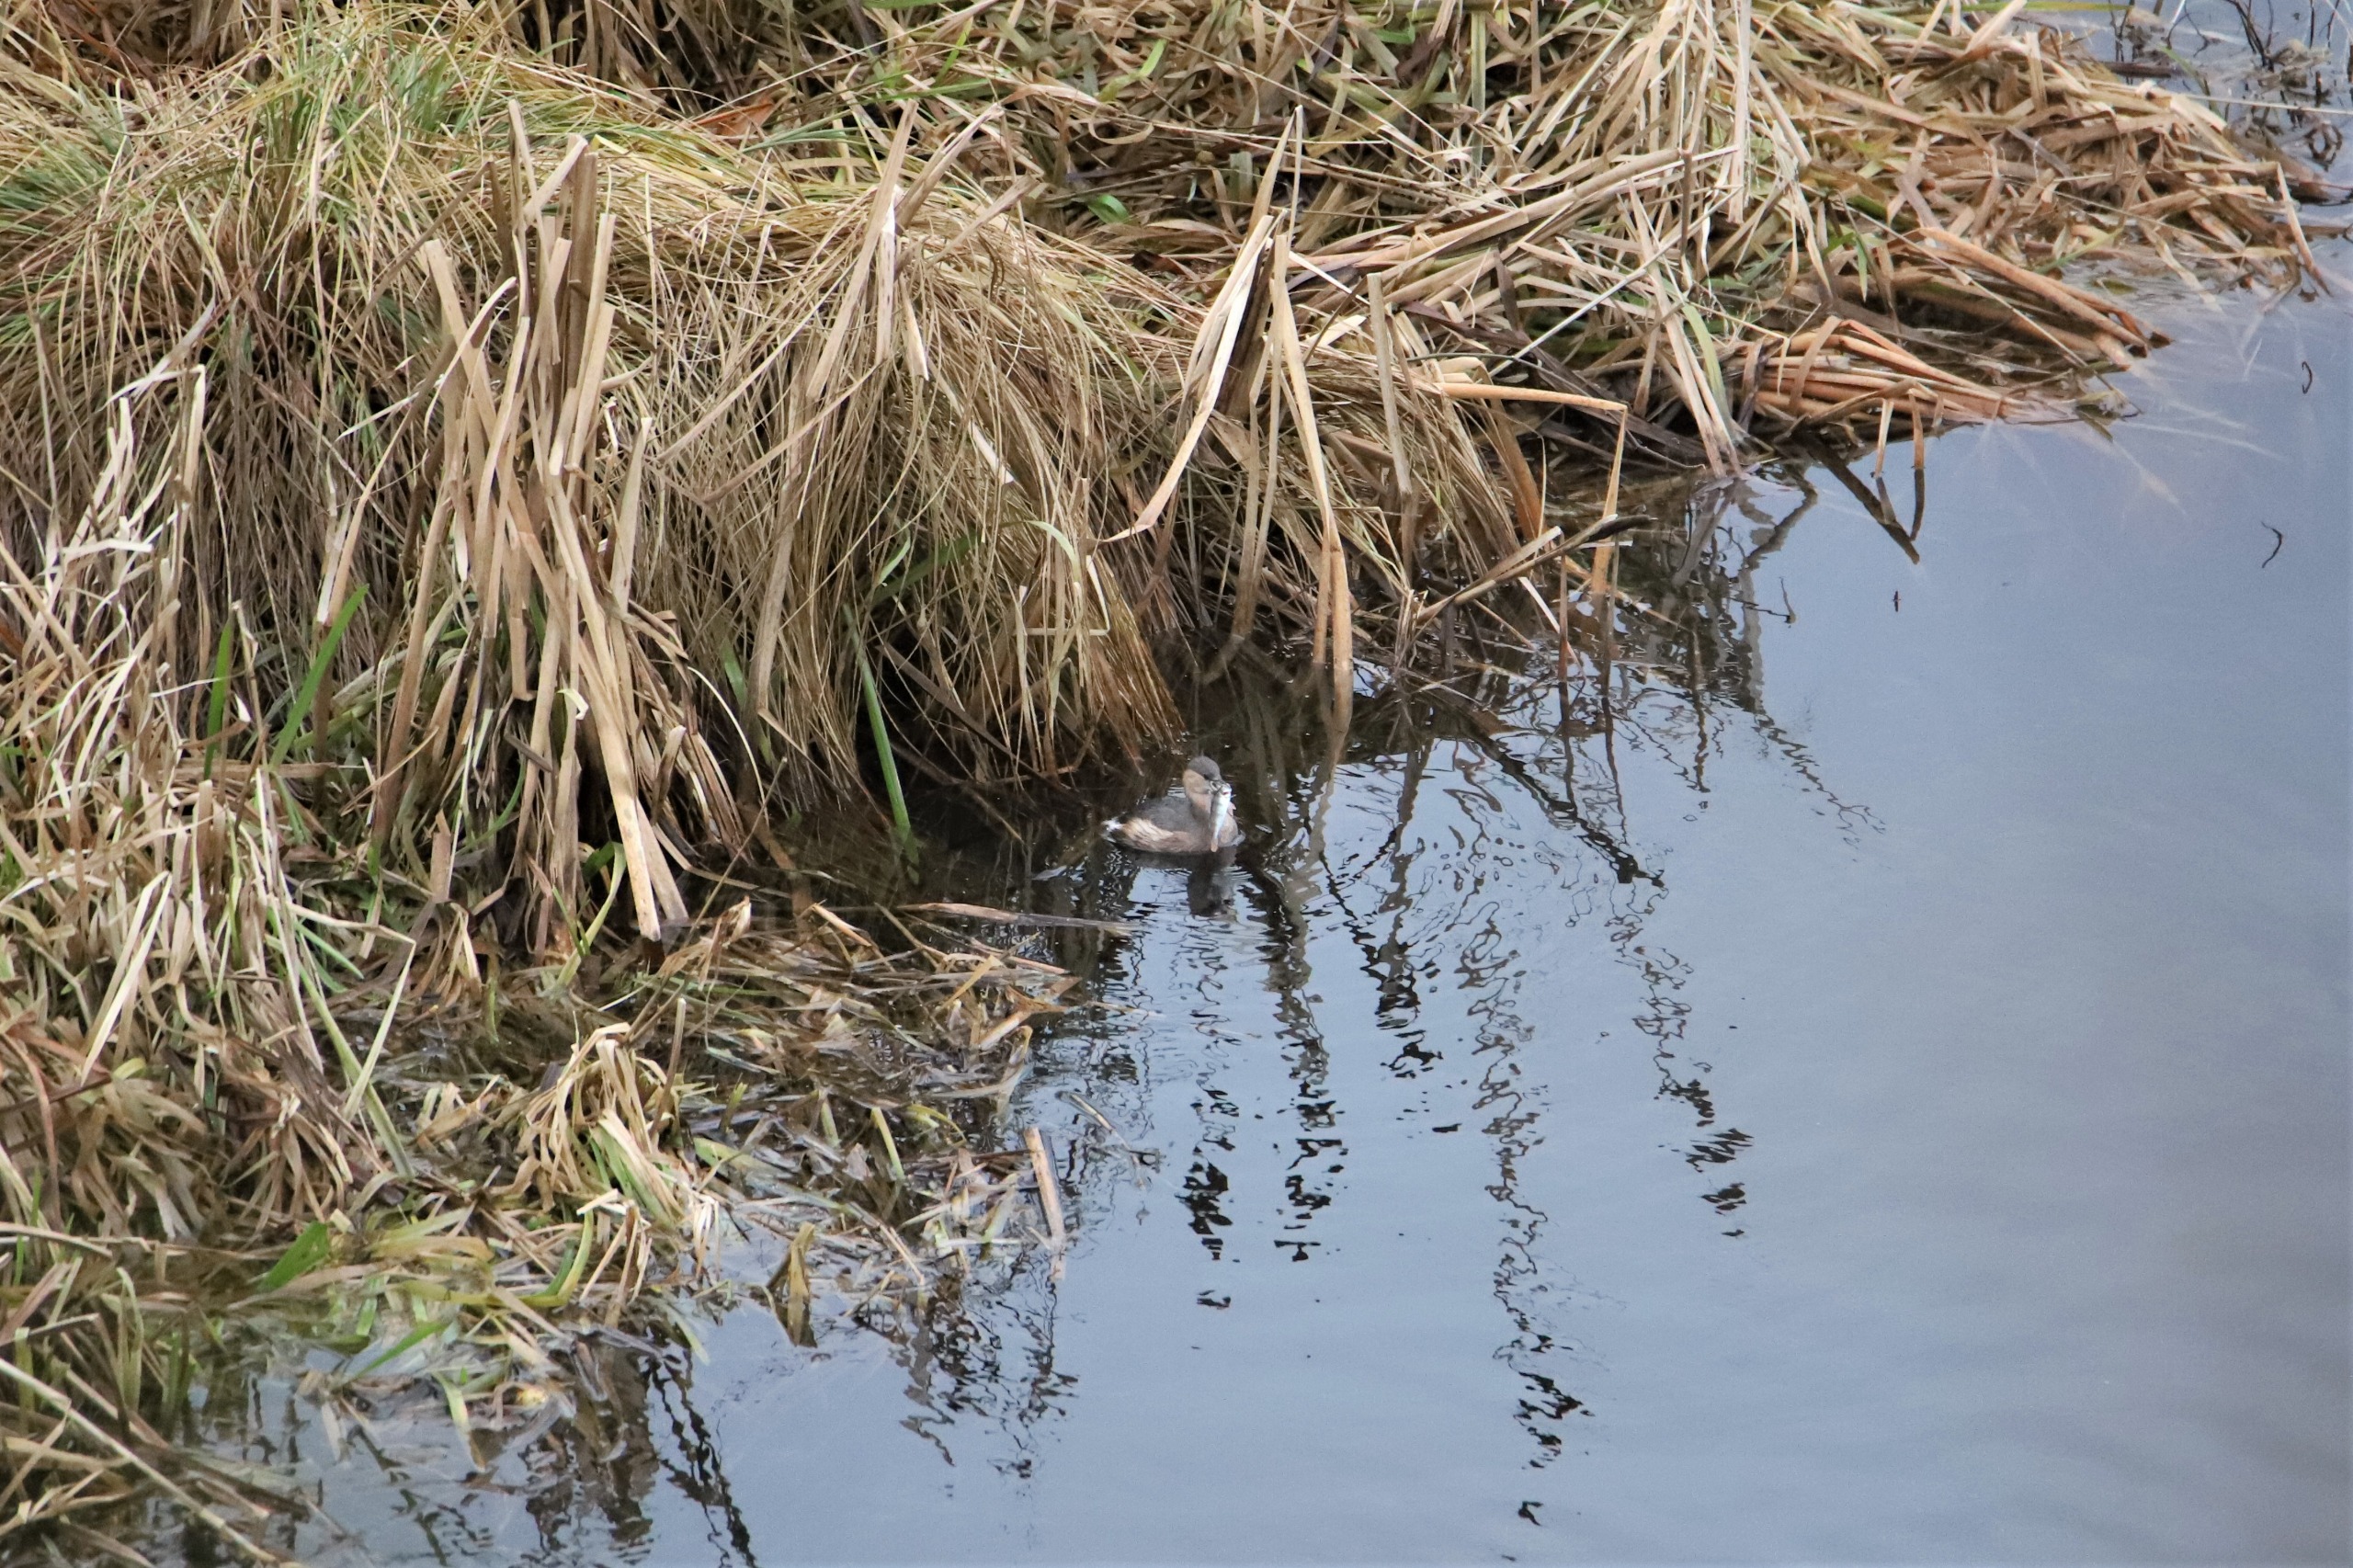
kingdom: Animalia
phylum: Chordata
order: Perciformes
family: Percidae
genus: Perca
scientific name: Perca fluviatilis
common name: Aborre
